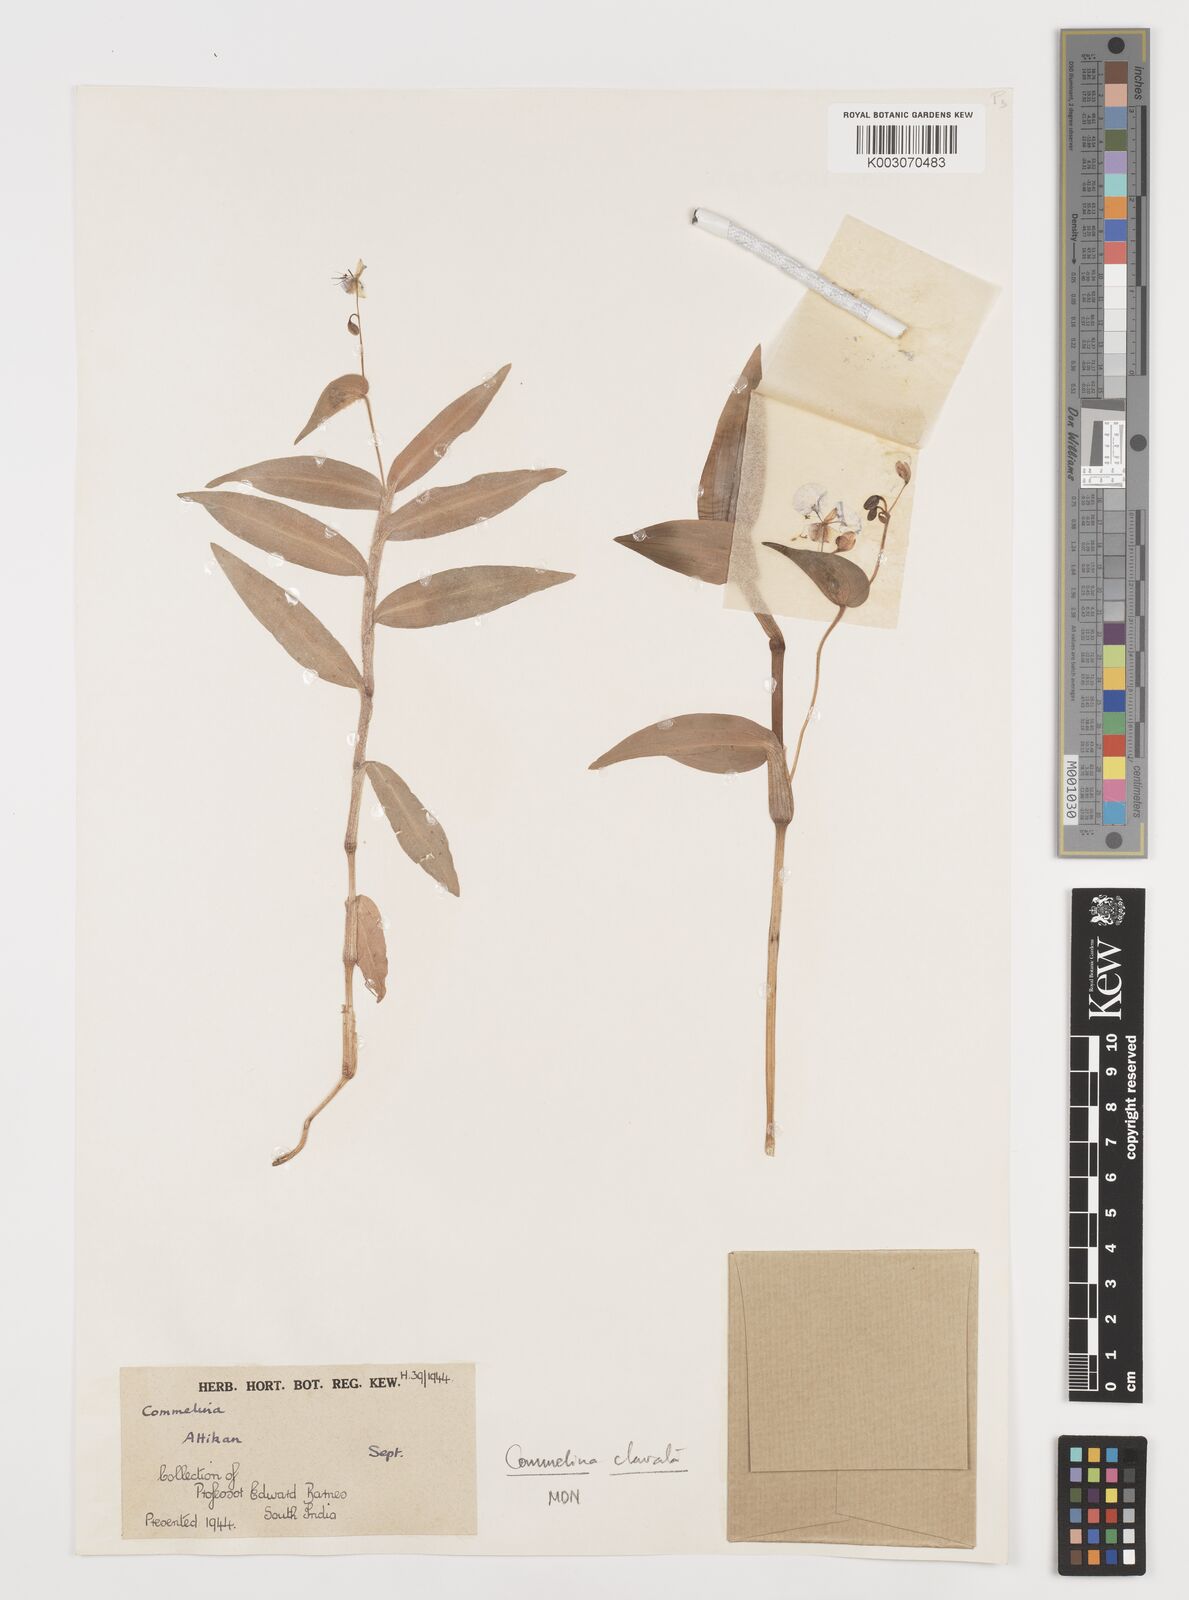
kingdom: Plantae
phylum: Tracheophyta
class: Liliopsida
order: Commelinales
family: Commelinaceae
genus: Commelina
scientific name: Commelina
